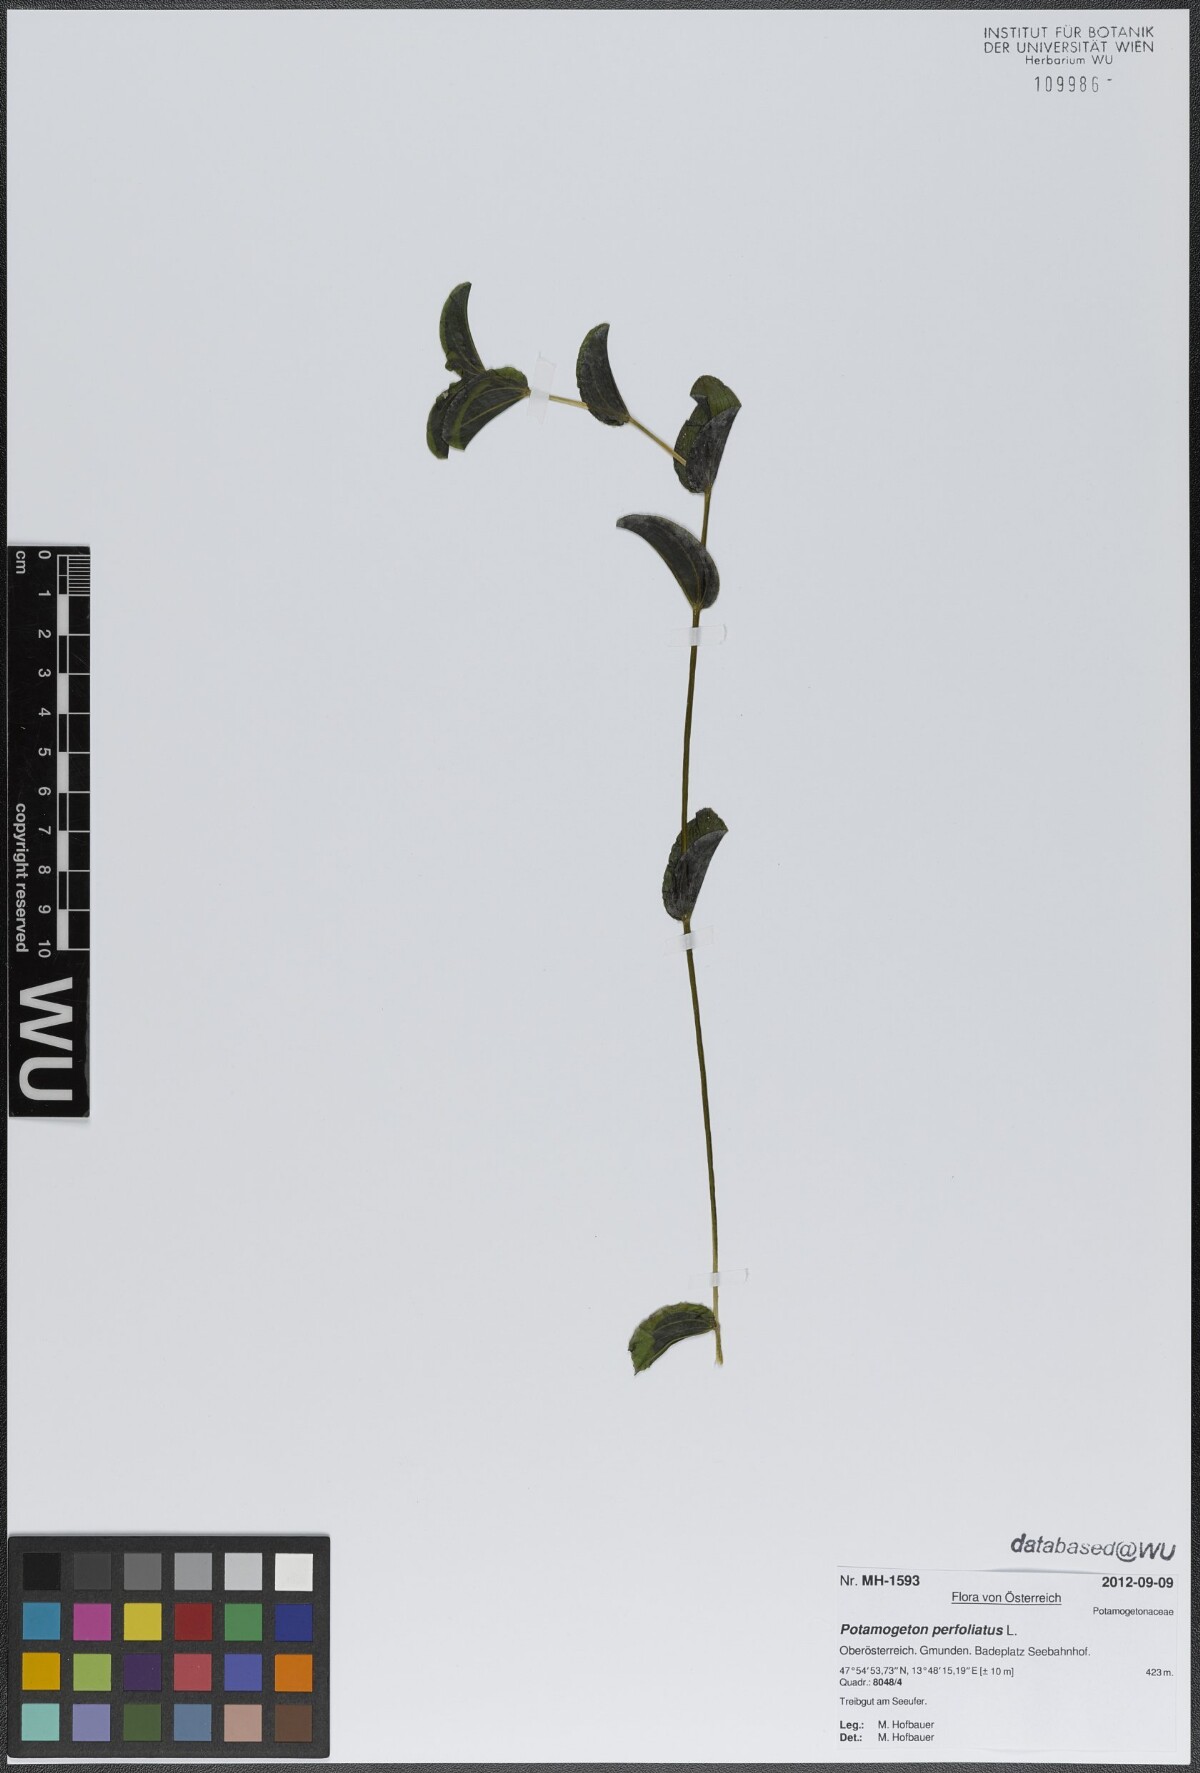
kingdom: Plantae
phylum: Tracheophyta
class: Liliopsida
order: Alismatales
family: Potamogetonaceae
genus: Potamogeton
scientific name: Potamogeton perfoliatus
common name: Perfoliate pondweed
